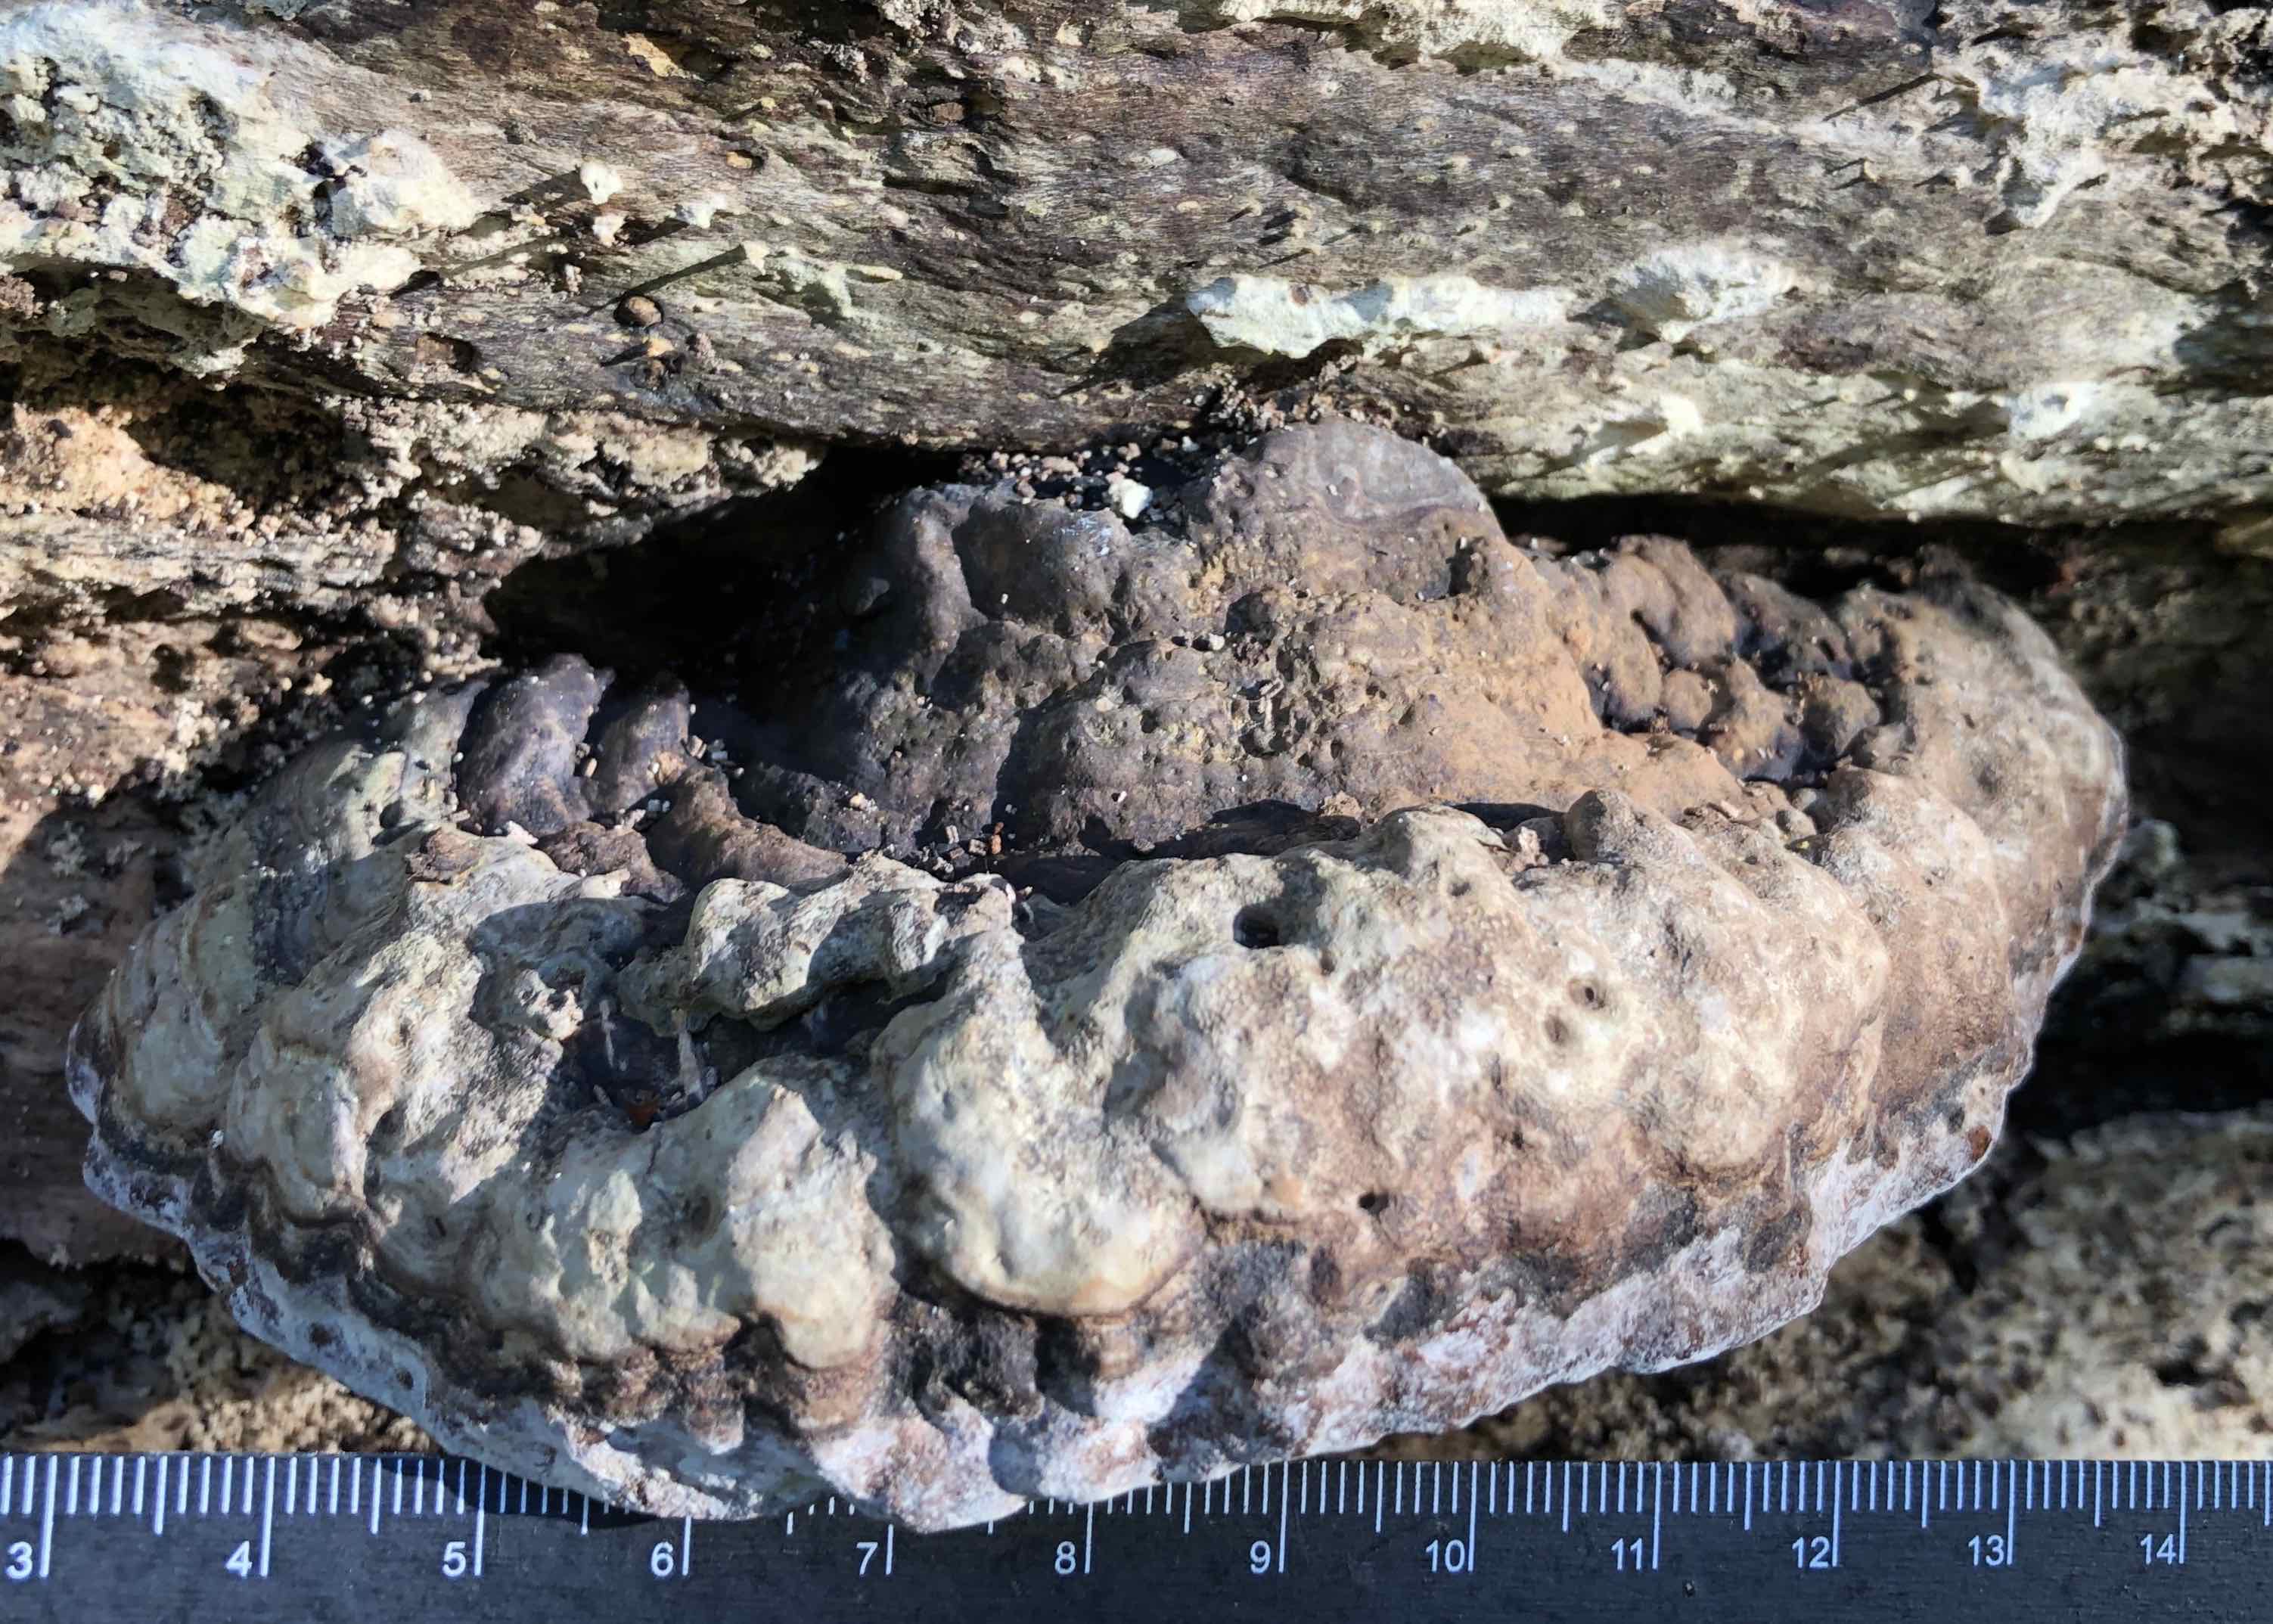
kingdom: Fungi
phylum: Basidiomycota
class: Agaricomycetes
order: Polyporales
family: Polyporaceae
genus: Fomes
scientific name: Fomes fomentarius
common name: tøndersvamp
